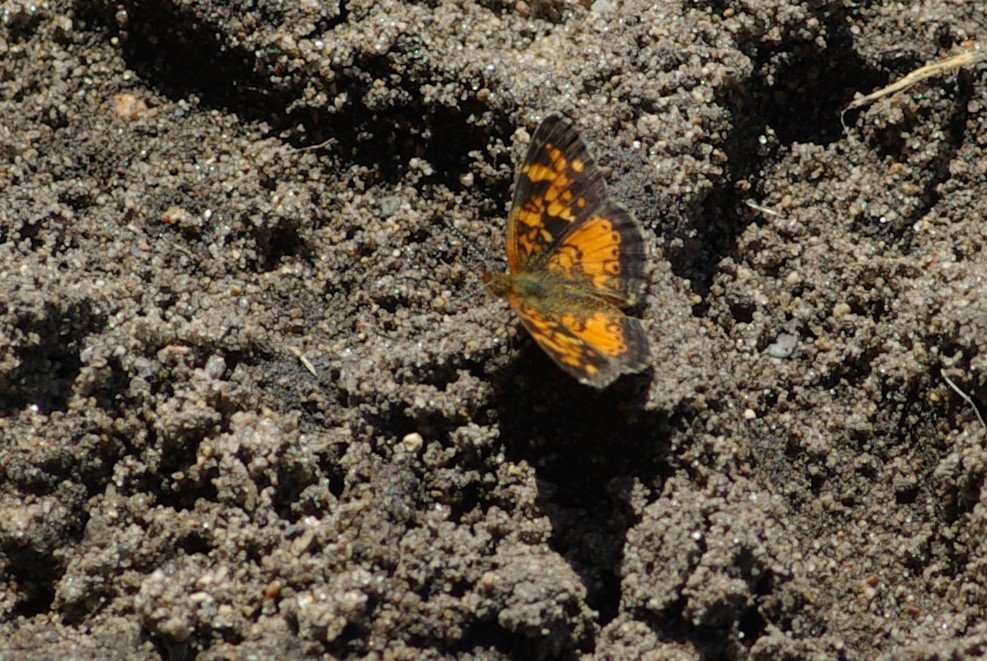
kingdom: Animalia
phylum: Arthropoda
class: Insecta
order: Lepidoptera
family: Nymphalidae
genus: Phyciodes
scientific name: Phyciodes tharos
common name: Northern Crescent
